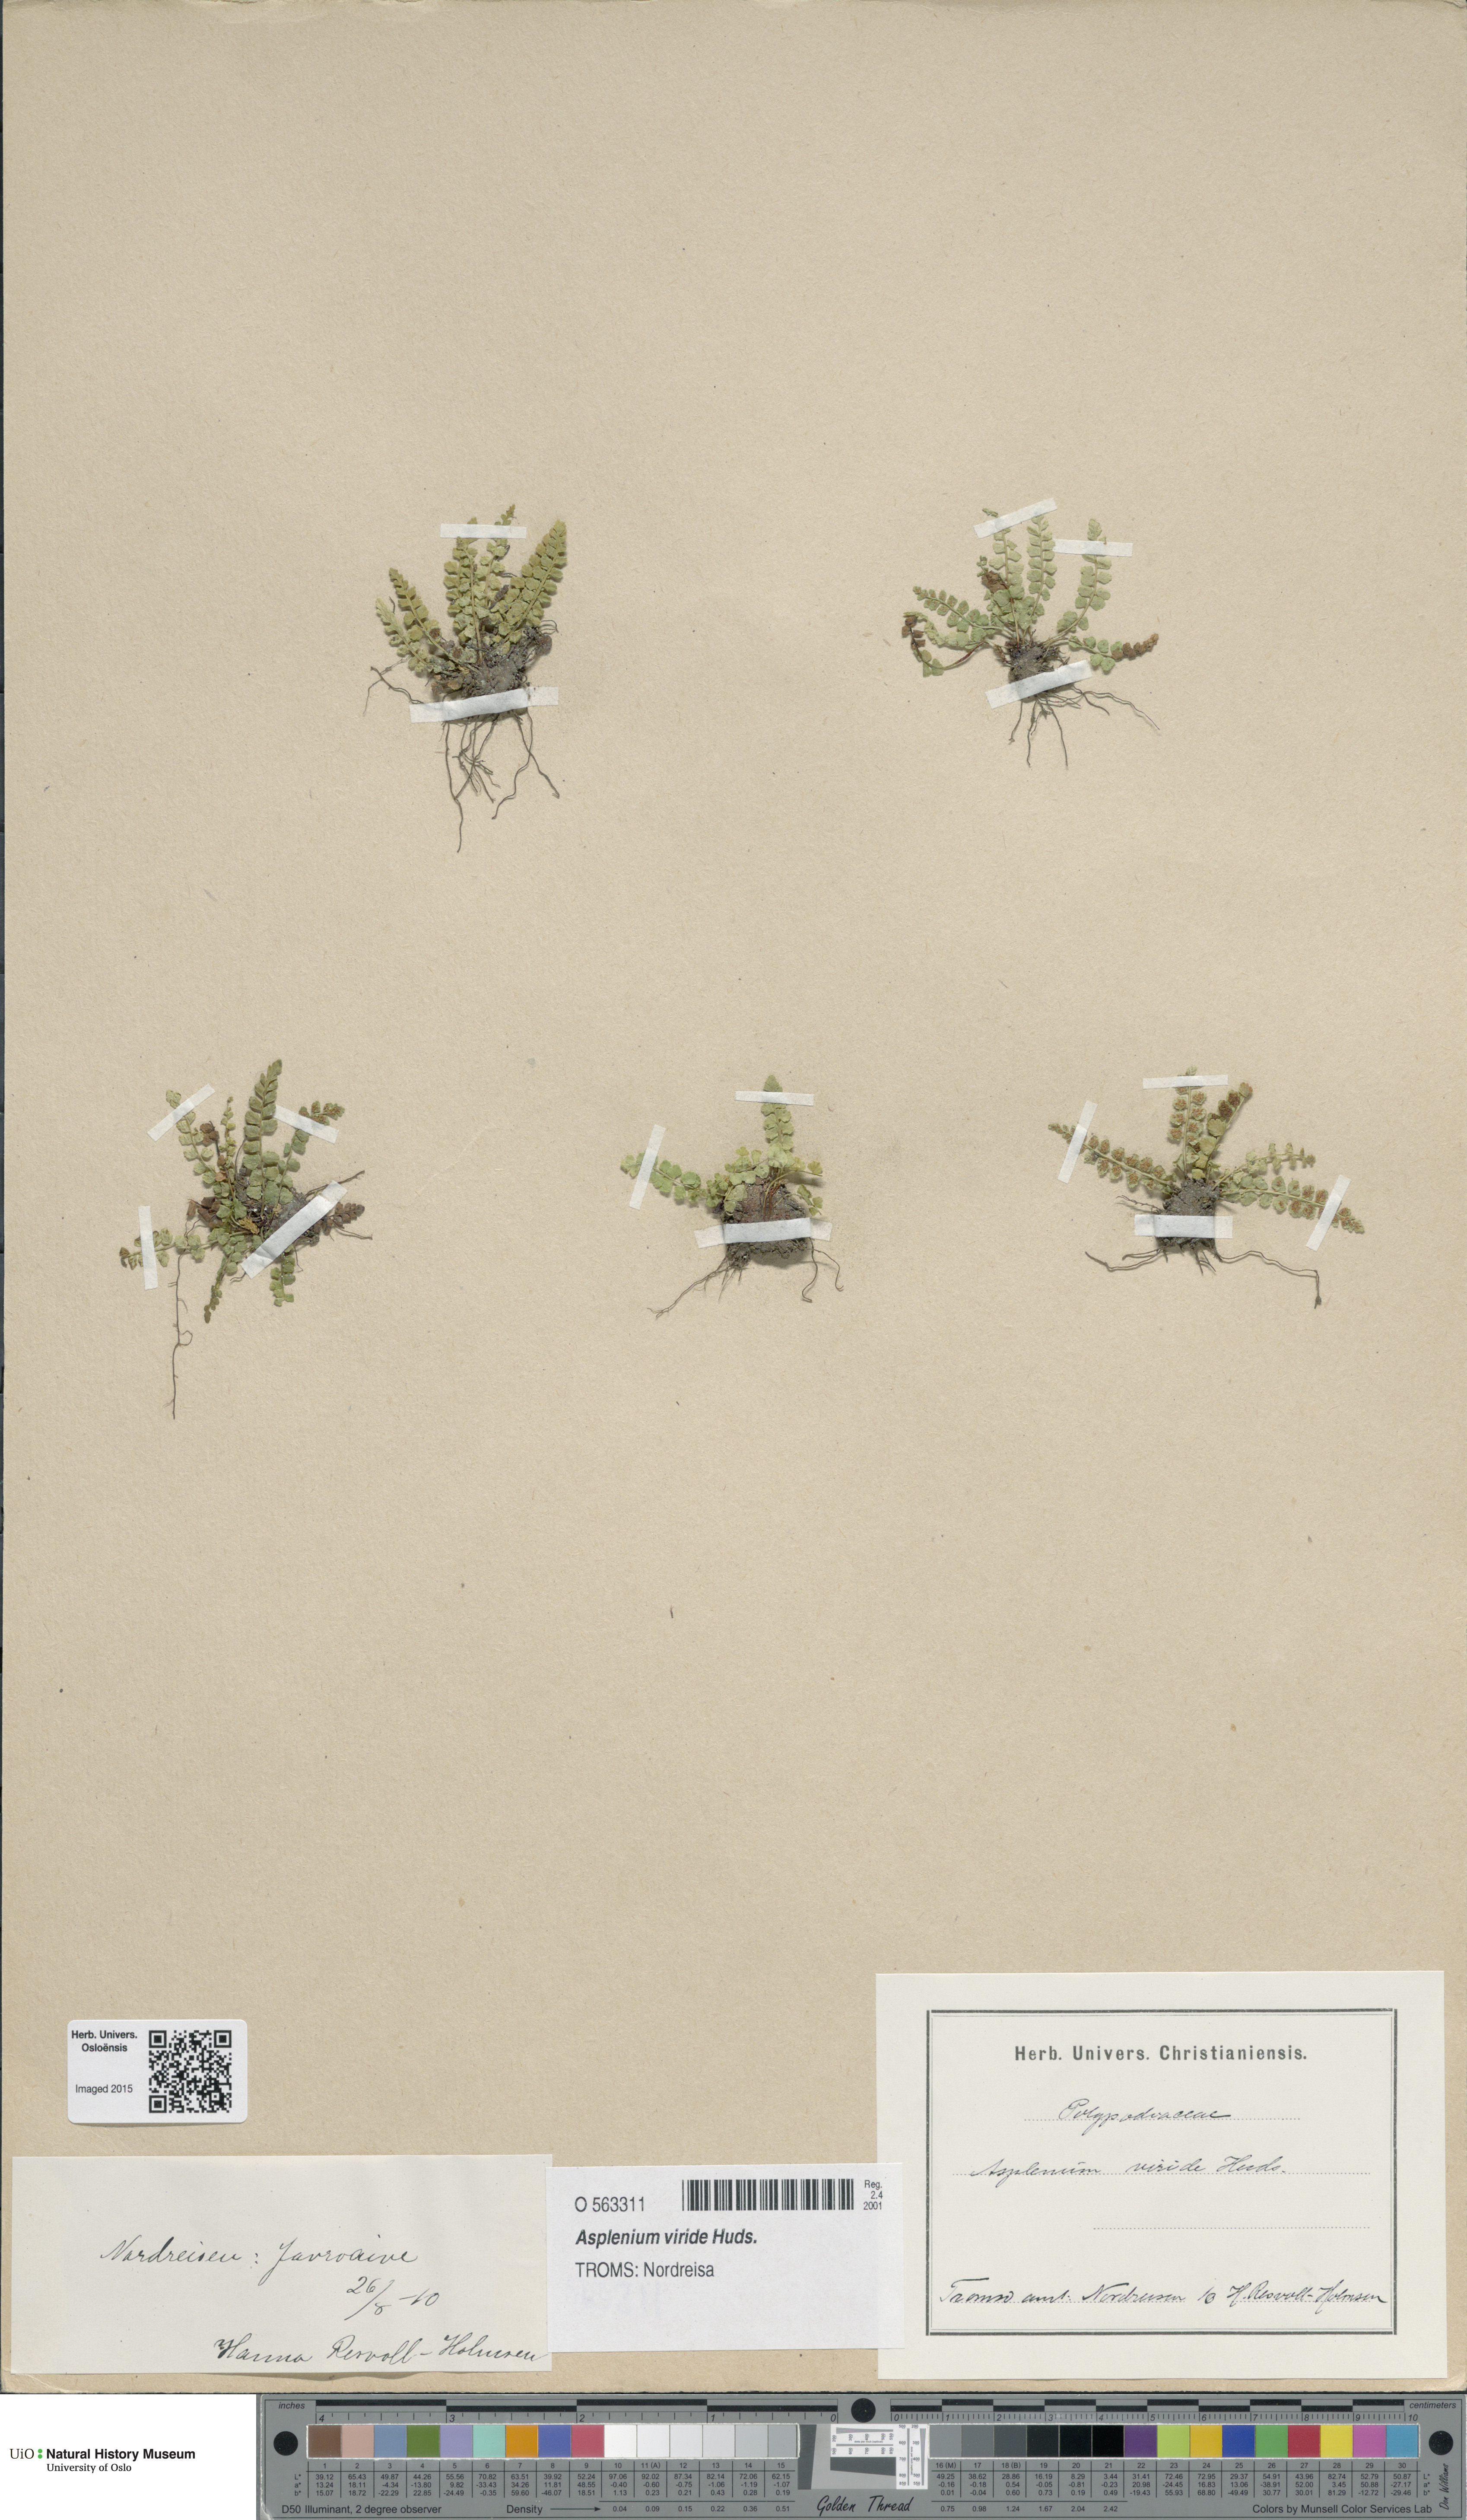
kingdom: Plantae
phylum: Tracheophyta
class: Polypodiopsida
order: Polypodiales
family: Aspleniaceae
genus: Asplenium
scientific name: Asplenium viride
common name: Green spleenwort
